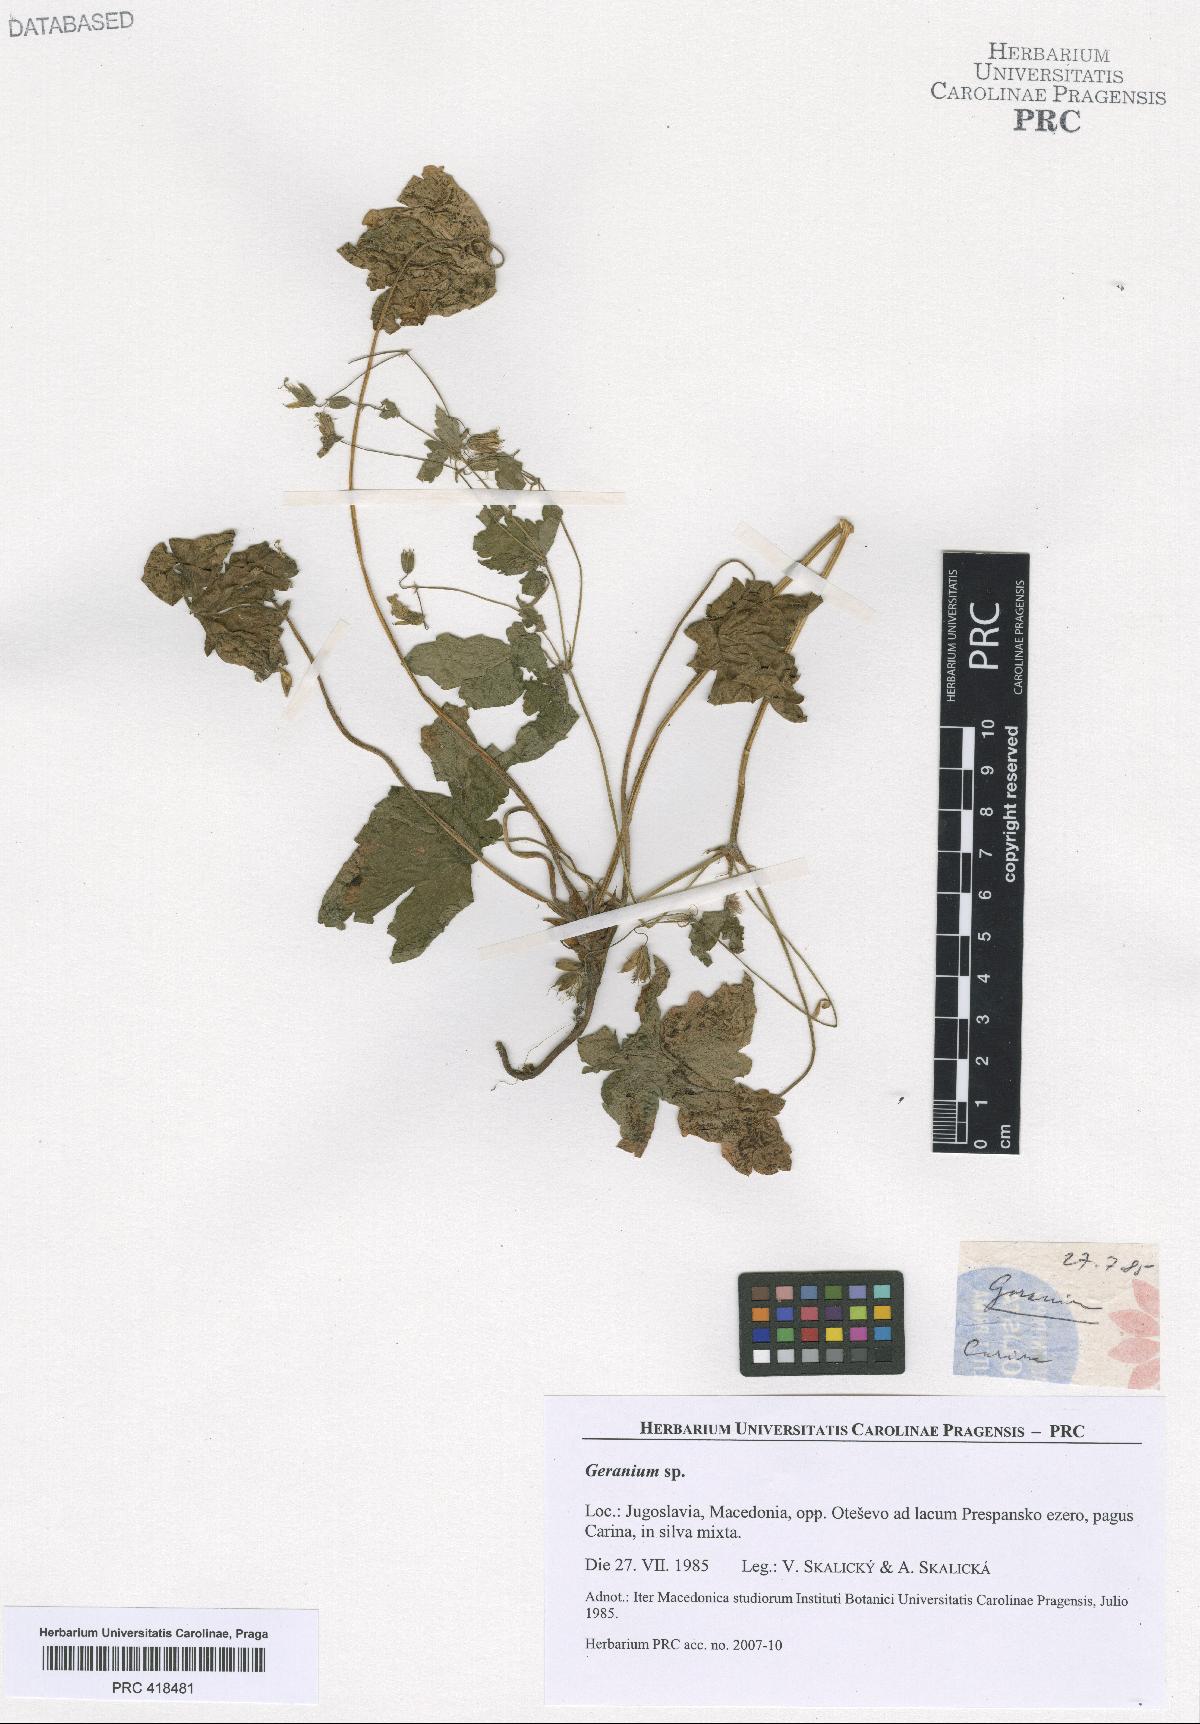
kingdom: Plantae
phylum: Tracheophyta
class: Magnoliopsida
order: Geraniales
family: Geraniaceae
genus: Geranium
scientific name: Geranium
